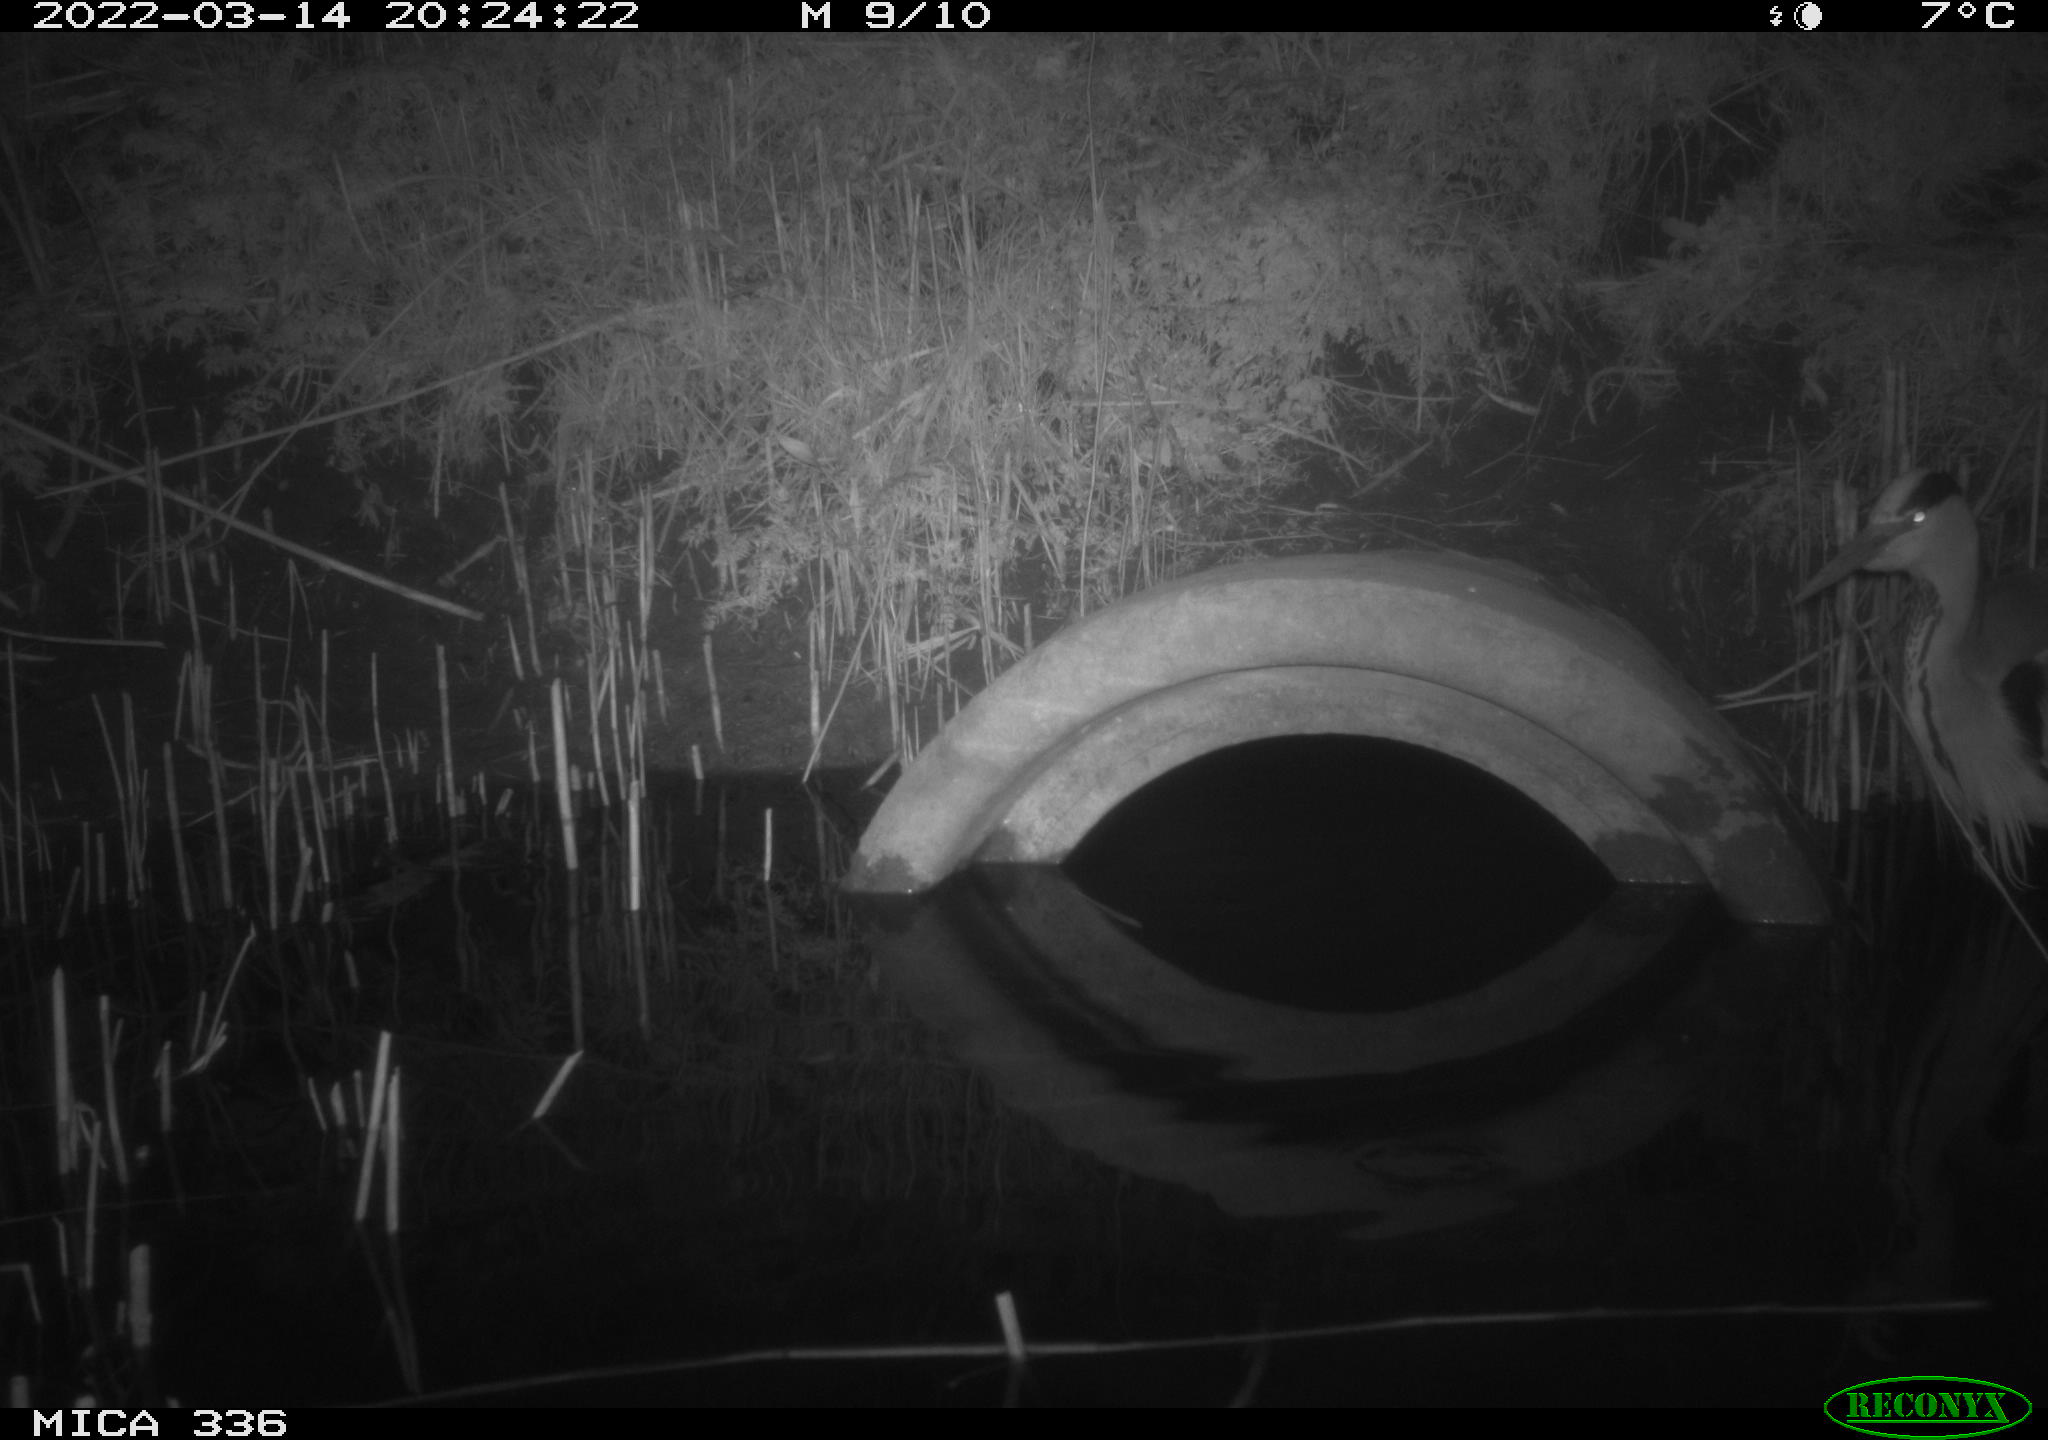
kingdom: Animalia
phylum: Chordata
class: Aves
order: Pelecaniformes
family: Ardeidae
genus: Ardea
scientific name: Ardea cinerea
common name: Grey heron
